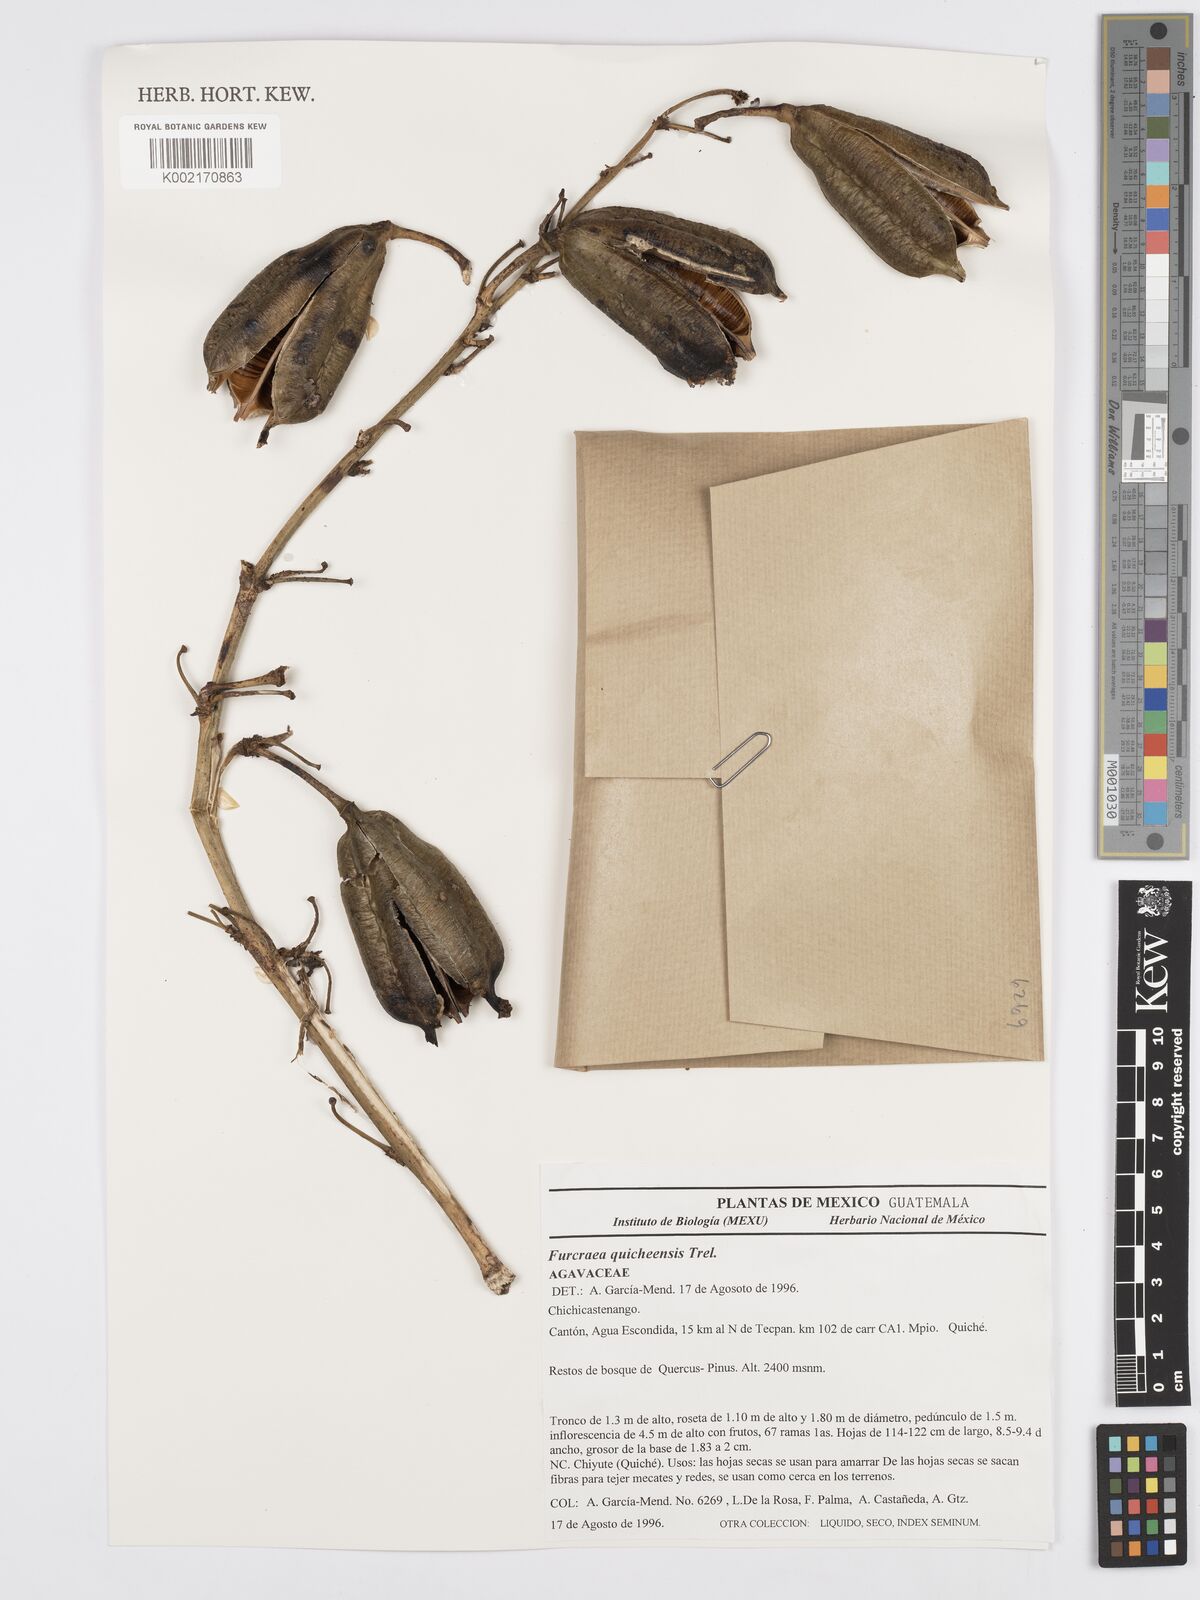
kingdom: Plantae
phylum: Tracheophyta
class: Liliopsida
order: Asparagales
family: Asparagaceae
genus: Furcraea
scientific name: Furcraea quicheensis
